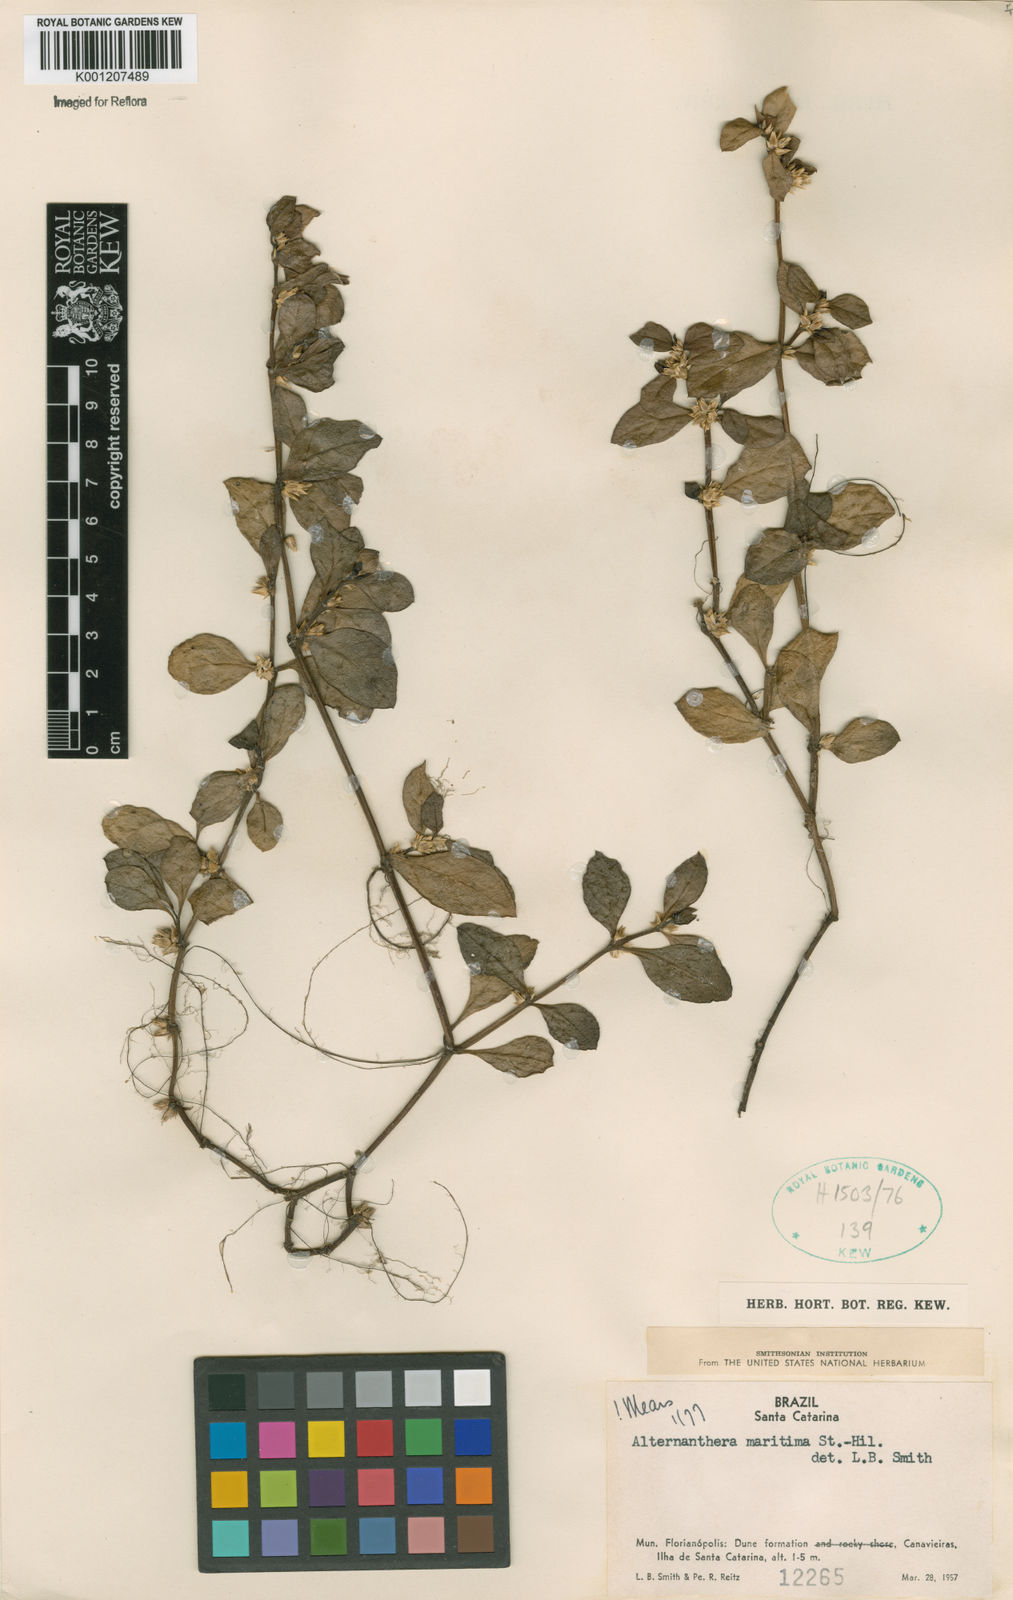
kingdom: Plantae
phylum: Tracheophyta
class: Magnoliopsida
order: Caryophyllales
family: Amaranthaceae
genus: Alternanthera
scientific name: Alternanthera littoralis
